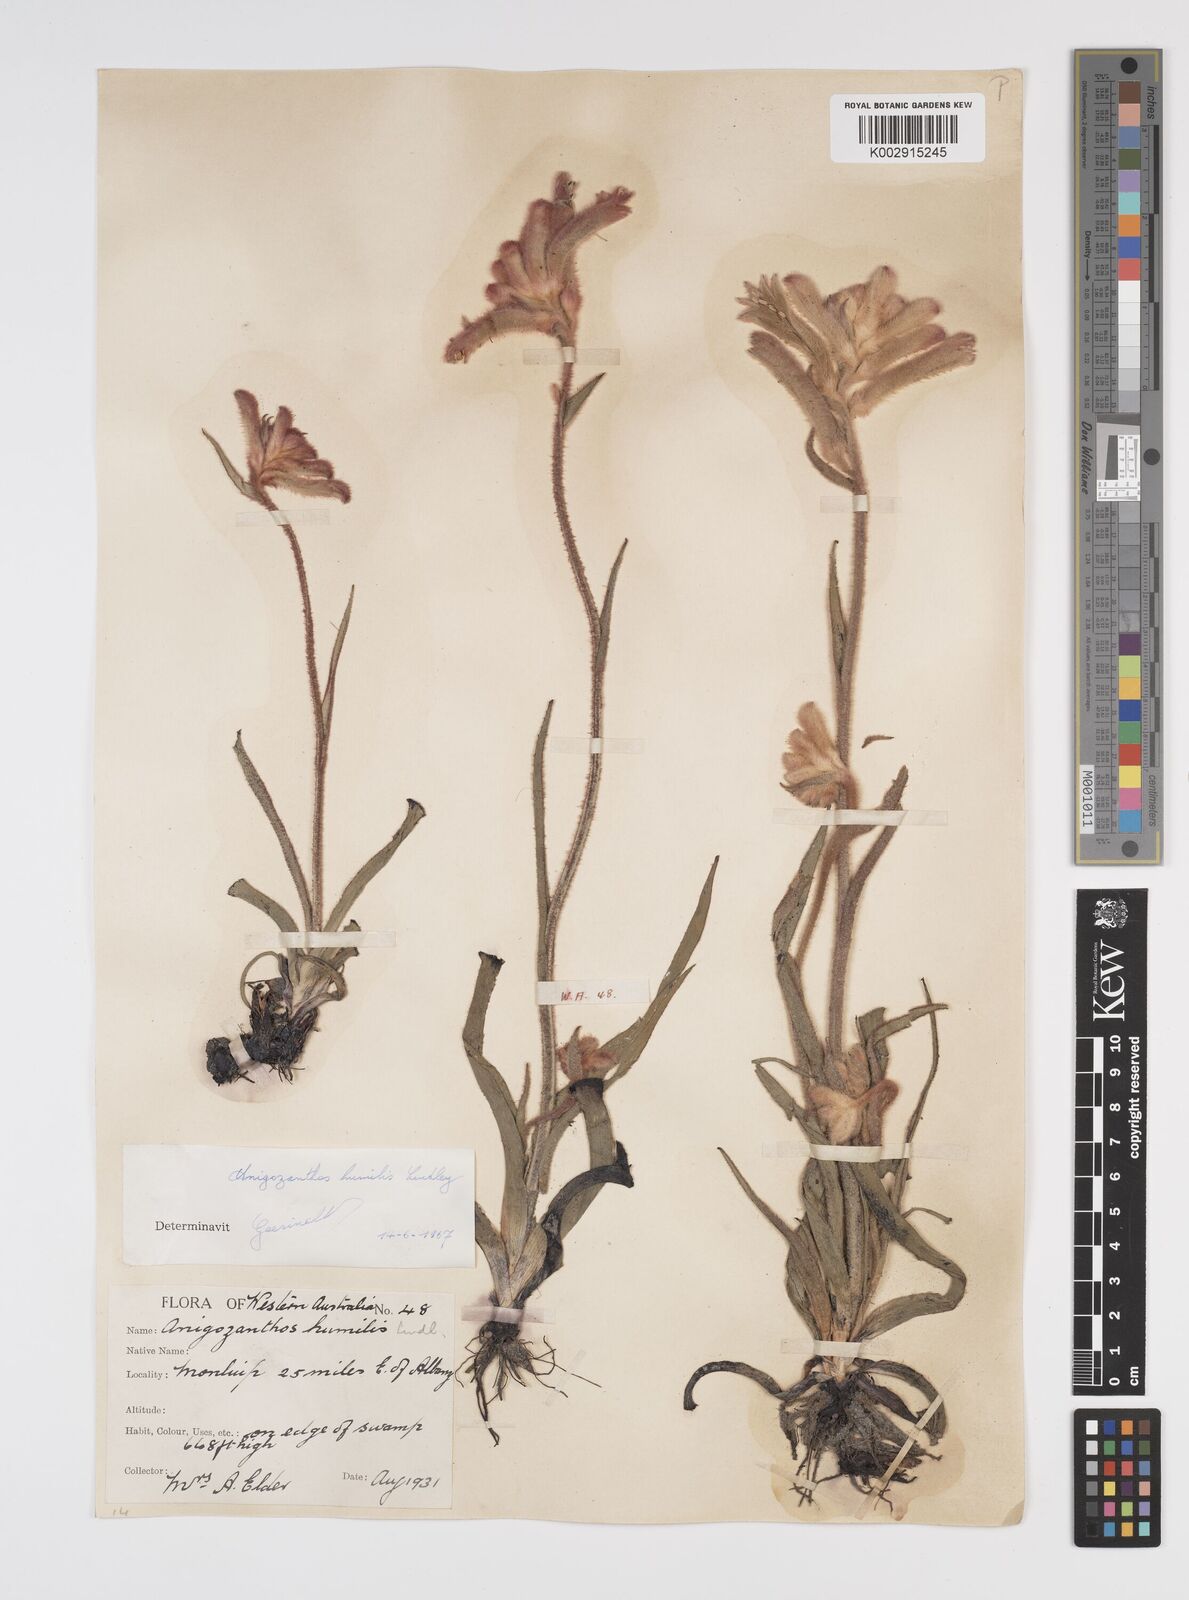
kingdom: Plantae
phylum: Tracheophyta
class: Liliopsida
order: Commelinales
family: Haemodoraceae
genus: Anigozanthos
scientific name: Anigozanthos humilis
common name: Cat's-paw
